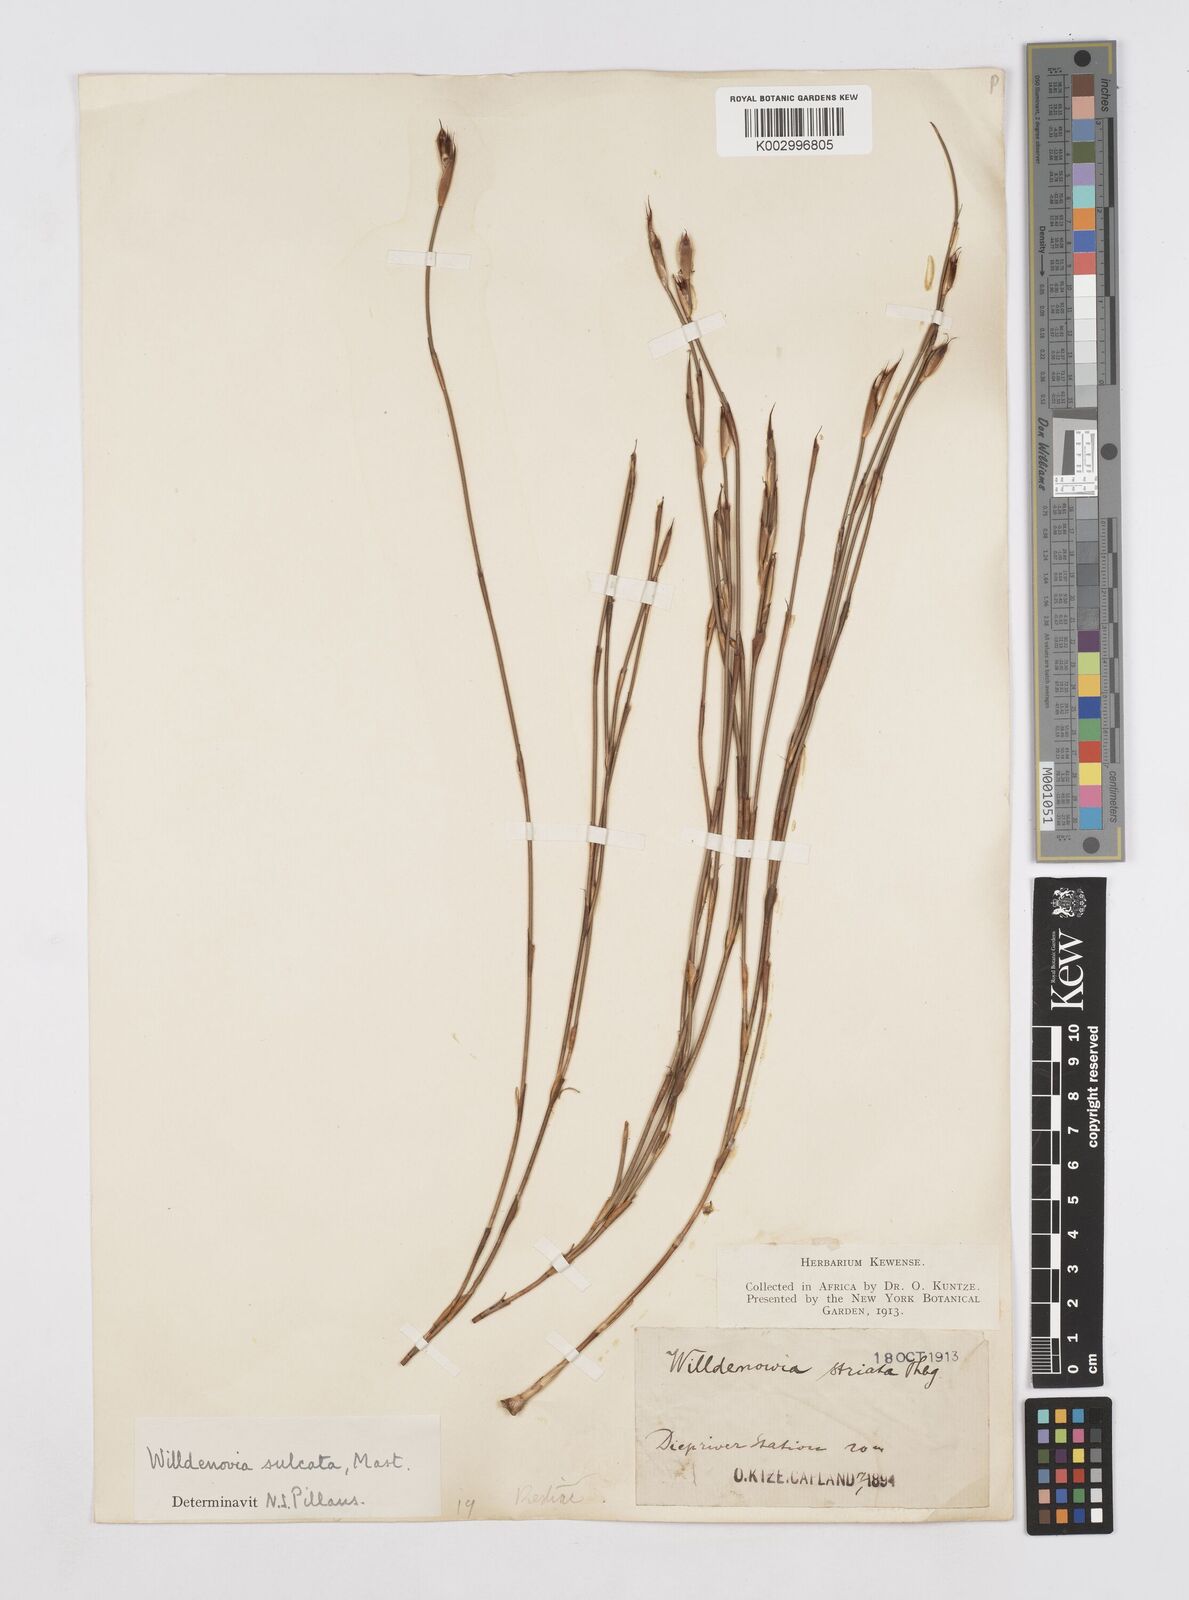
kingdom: Plantae
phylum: Tracheophyta
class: Liliopsida
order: Poales
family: Restionaceae
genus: Willdenowia
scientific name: Willdenowia sulcata
